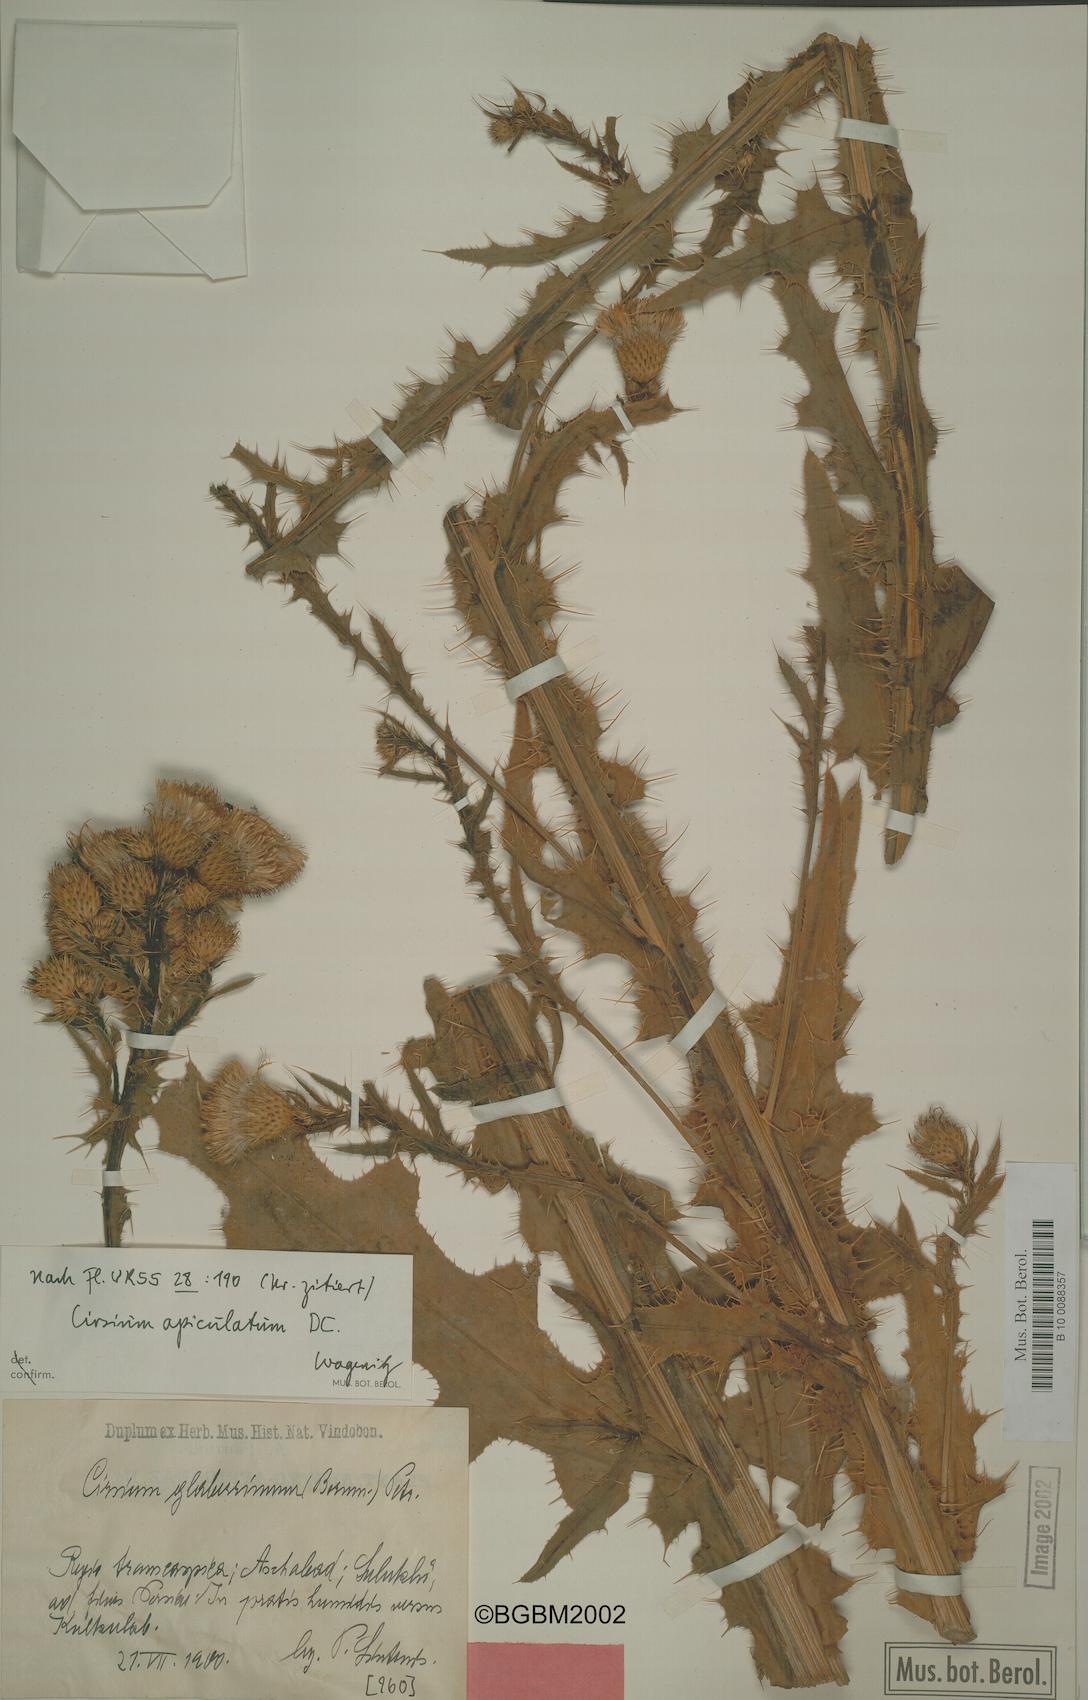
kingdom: Plantae
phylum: Tracheophyta
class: Magnoliopsida
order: Asterales
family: Asteraceae
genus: Cirsium
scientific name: Cirsium glaberrimum
